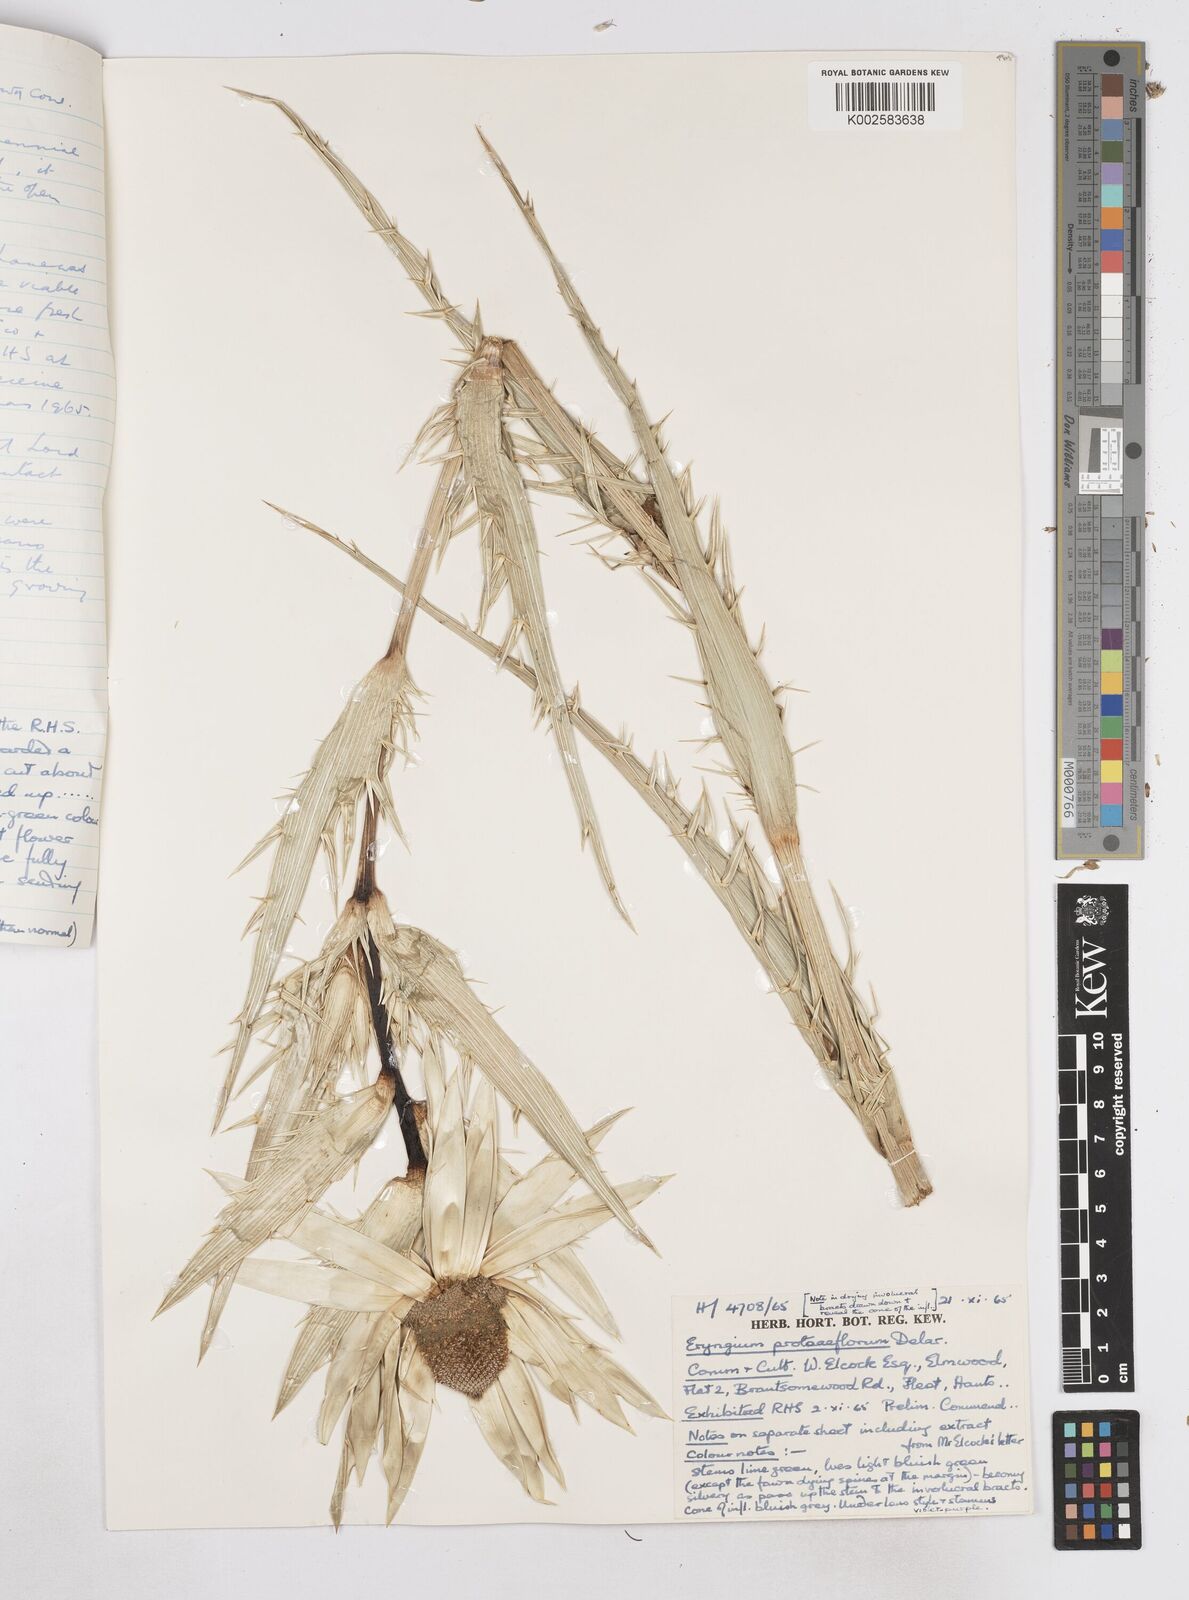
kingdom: Plantae
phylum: Tracheophyta
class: Magnoliopsida
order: Apiales
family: Apiaceae
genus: Eryngium
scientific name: Eryngium proteiflorum
